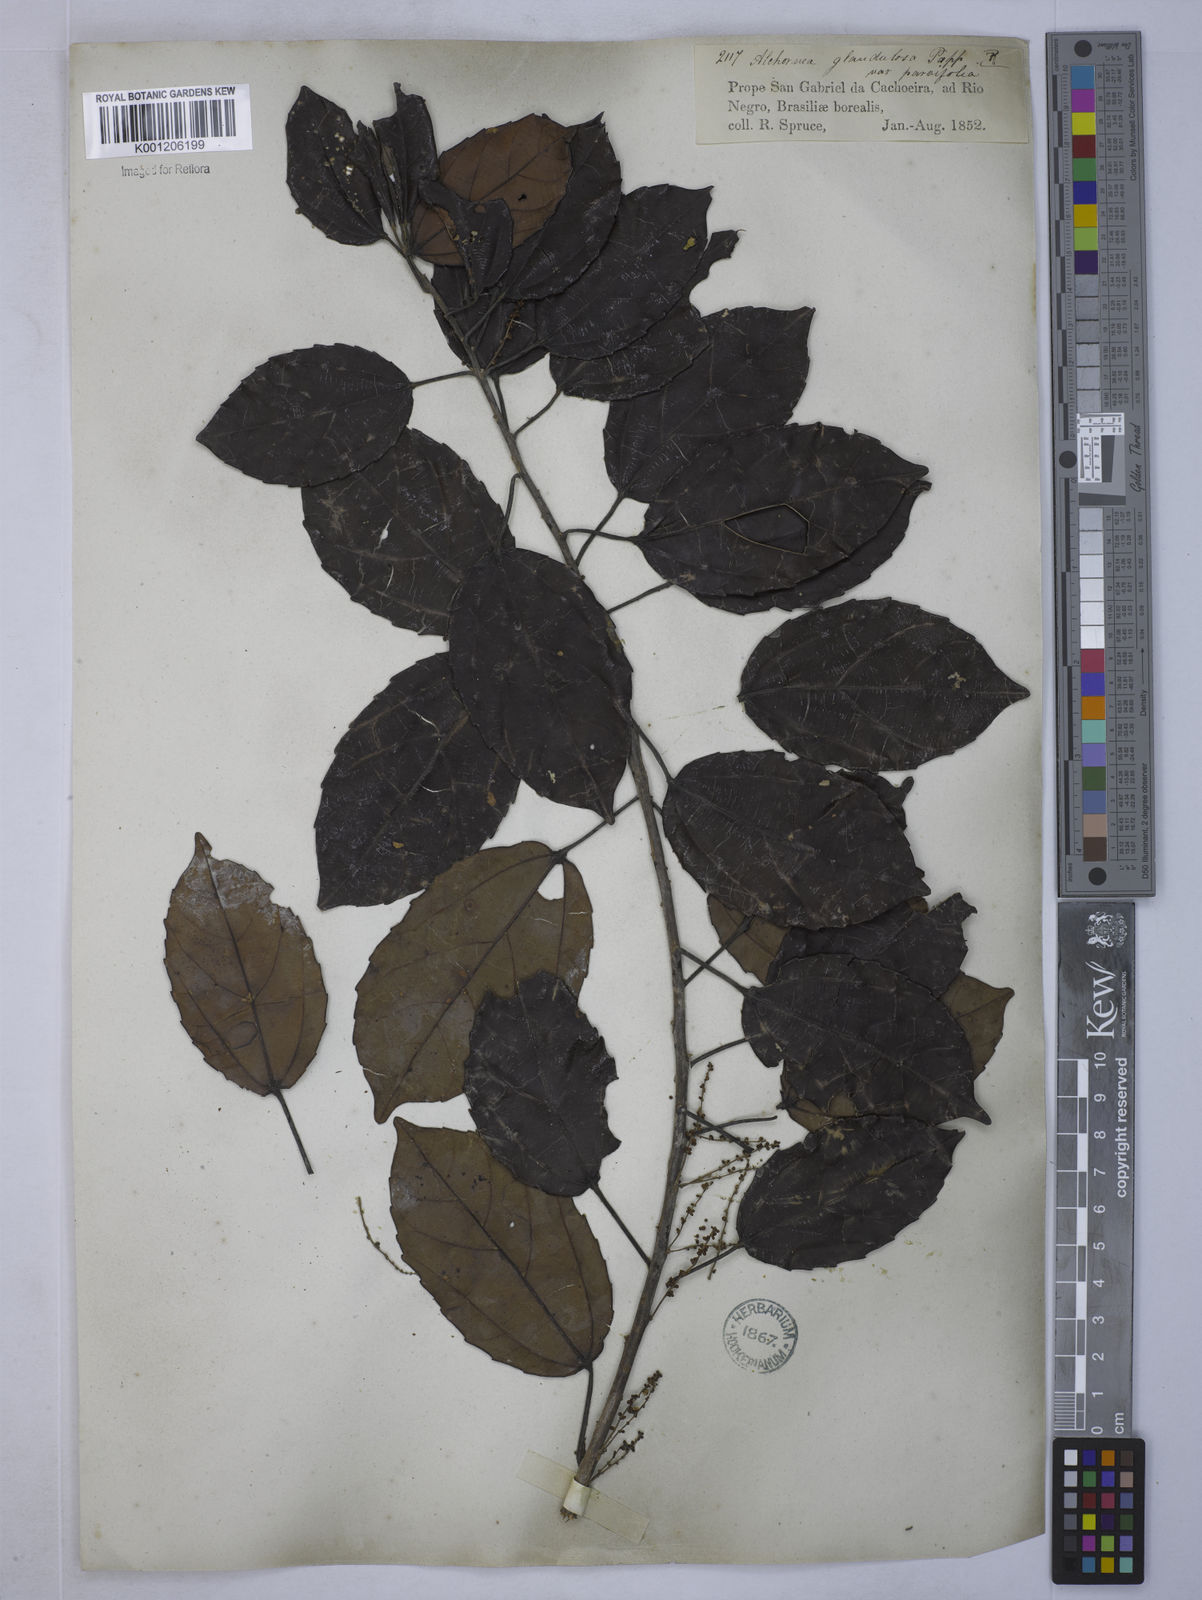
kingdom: Plantae
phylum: Tracheophyta
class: Magnoliopsida
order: Malpighiales
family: Euphorbiaceae
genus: Alchornea
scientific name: Alchornea
